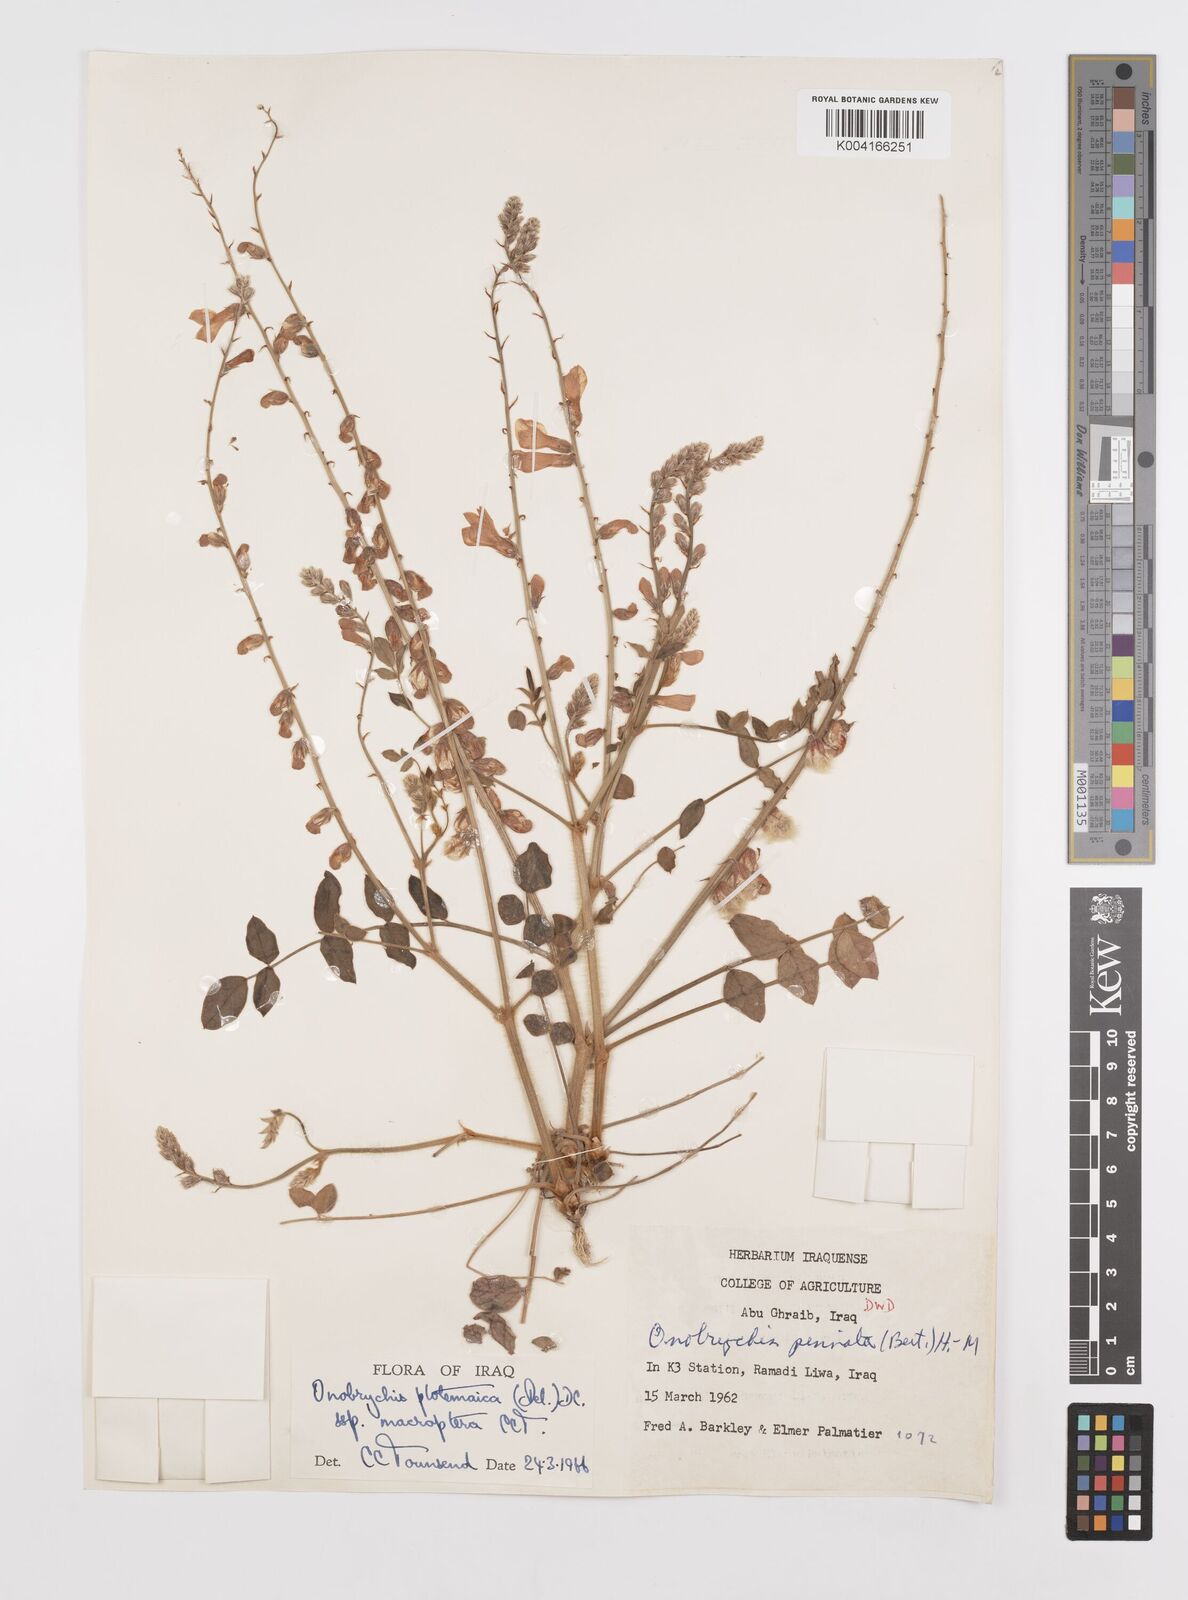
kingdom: Plantae
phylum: Tracheophyta
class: Magnoliopsida
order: Fabales
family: Fabaceae
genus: Onobrychis
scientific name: Onobrychis ptolemaica
